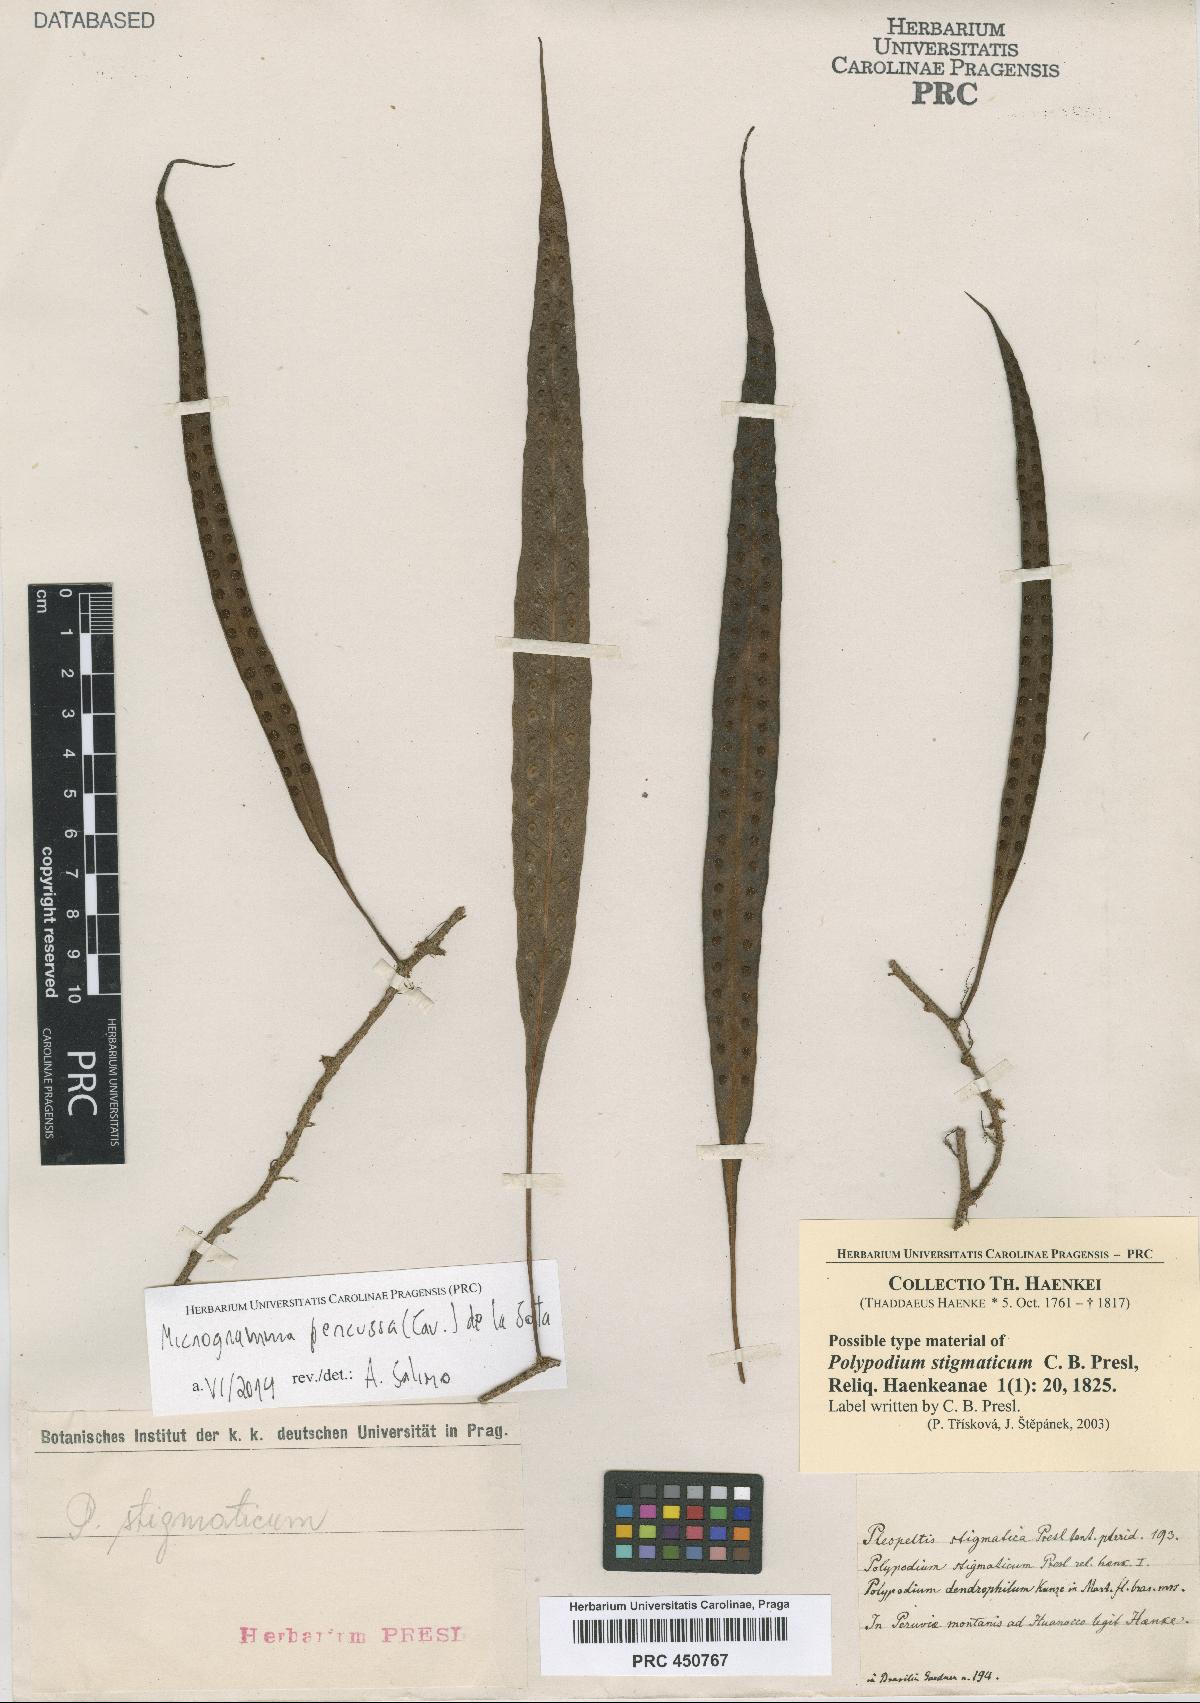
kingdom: Plantae
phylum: Tracheophyta
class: Polypodiopsida
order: Polypodiales
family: Polypodiaceae
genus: Microgramma
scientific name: Microgramma lycopodioides
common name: Bastard catclaw
